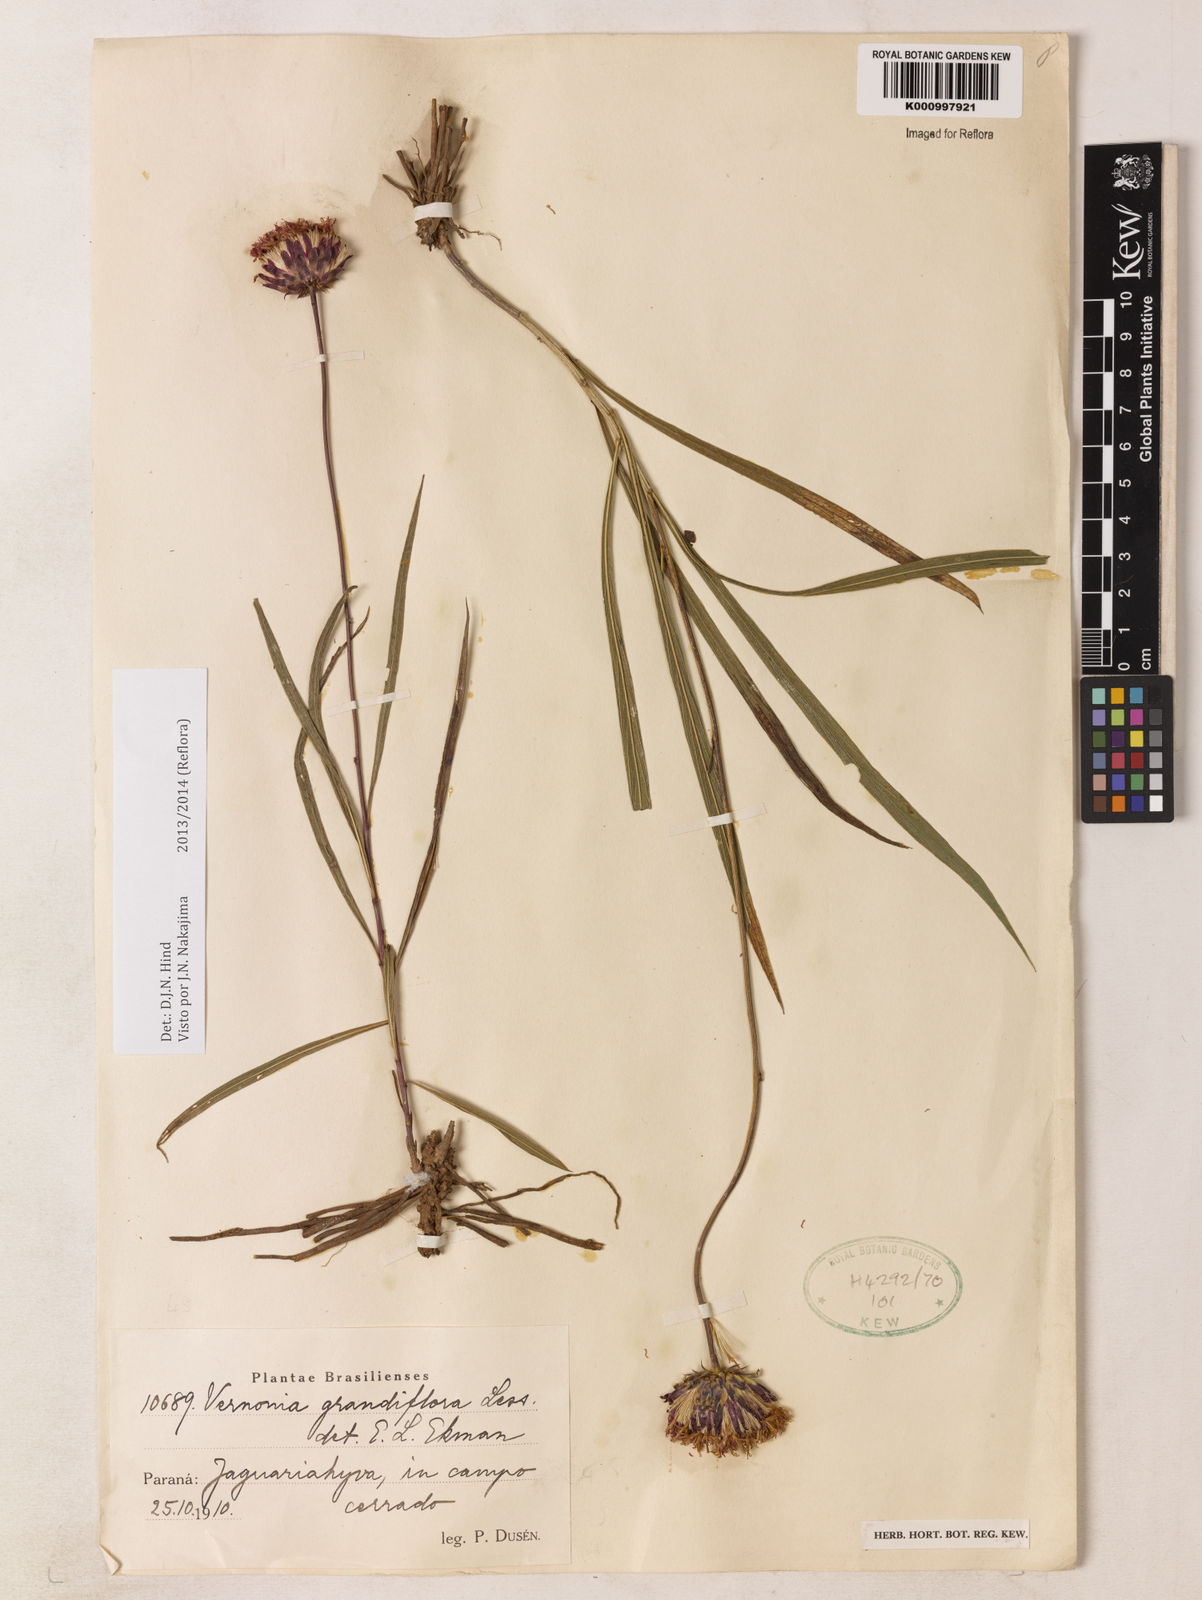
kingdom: Plantae
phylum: Tracheophyta
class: Magnoliopsida
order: Asterales
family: Asteraceae
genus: Lessingianthus
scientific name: Lessingianthus grandiflorus
